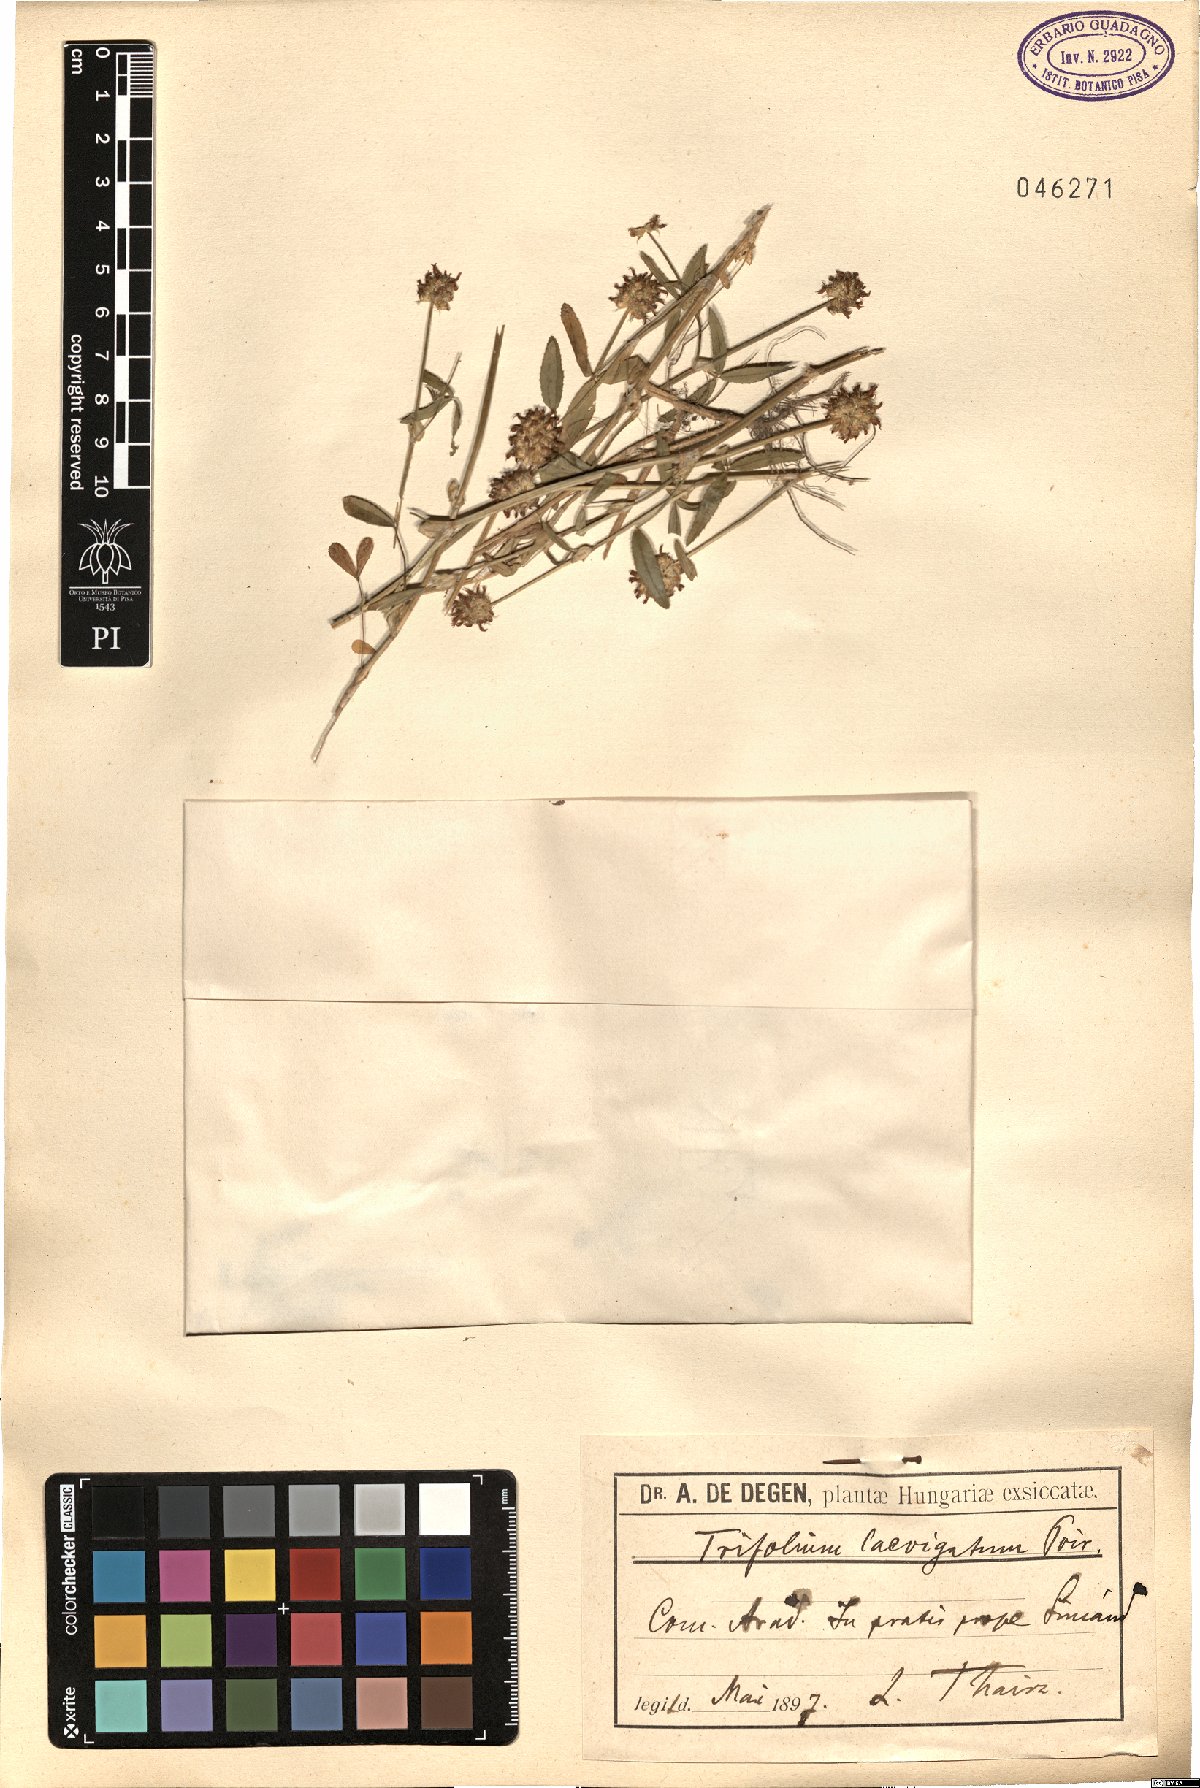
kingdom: Plantae
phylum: Tracheophyta
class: Magnoliopsida
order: Fabales
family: Fabaceae
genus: Trifolium
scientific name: Trifolium strictum
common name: Upright clover
